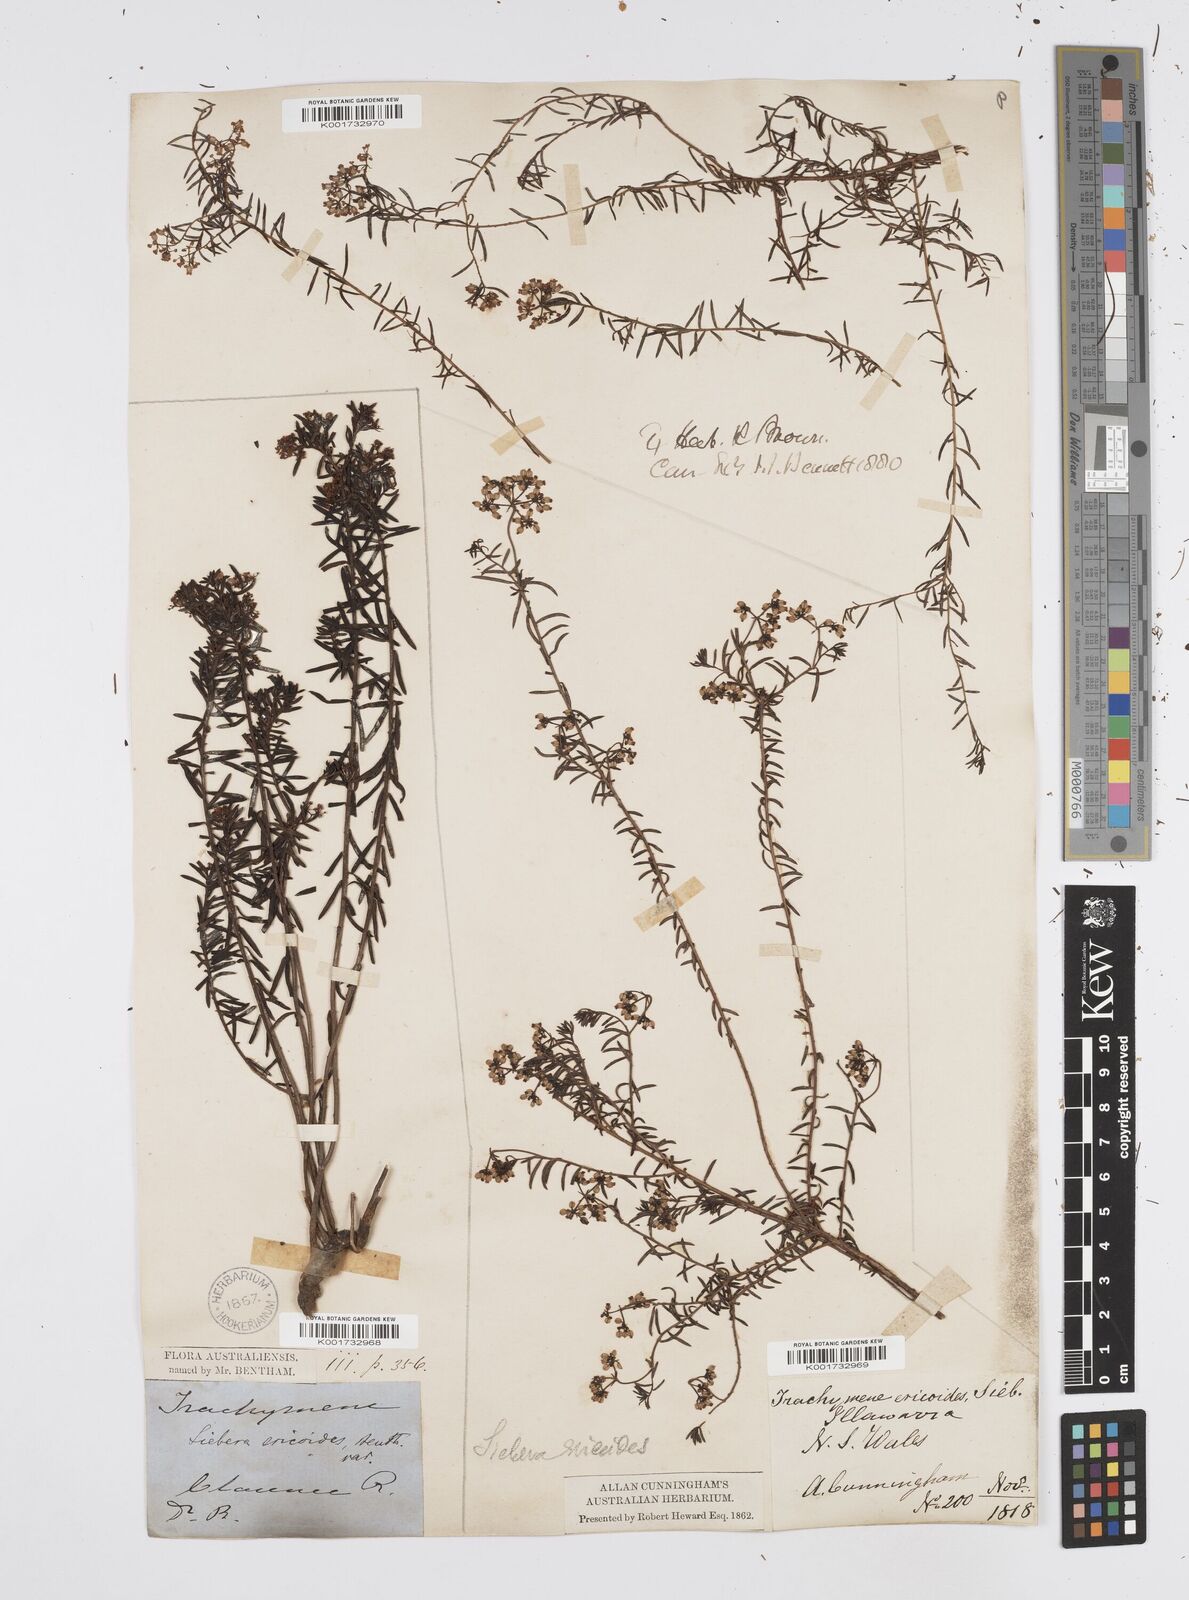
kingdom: Plantae
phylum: Tracheophyta
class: Magnoliopsida
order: Apiales
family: Apiaceae
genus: Platysace
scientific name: Platysace ericoides
